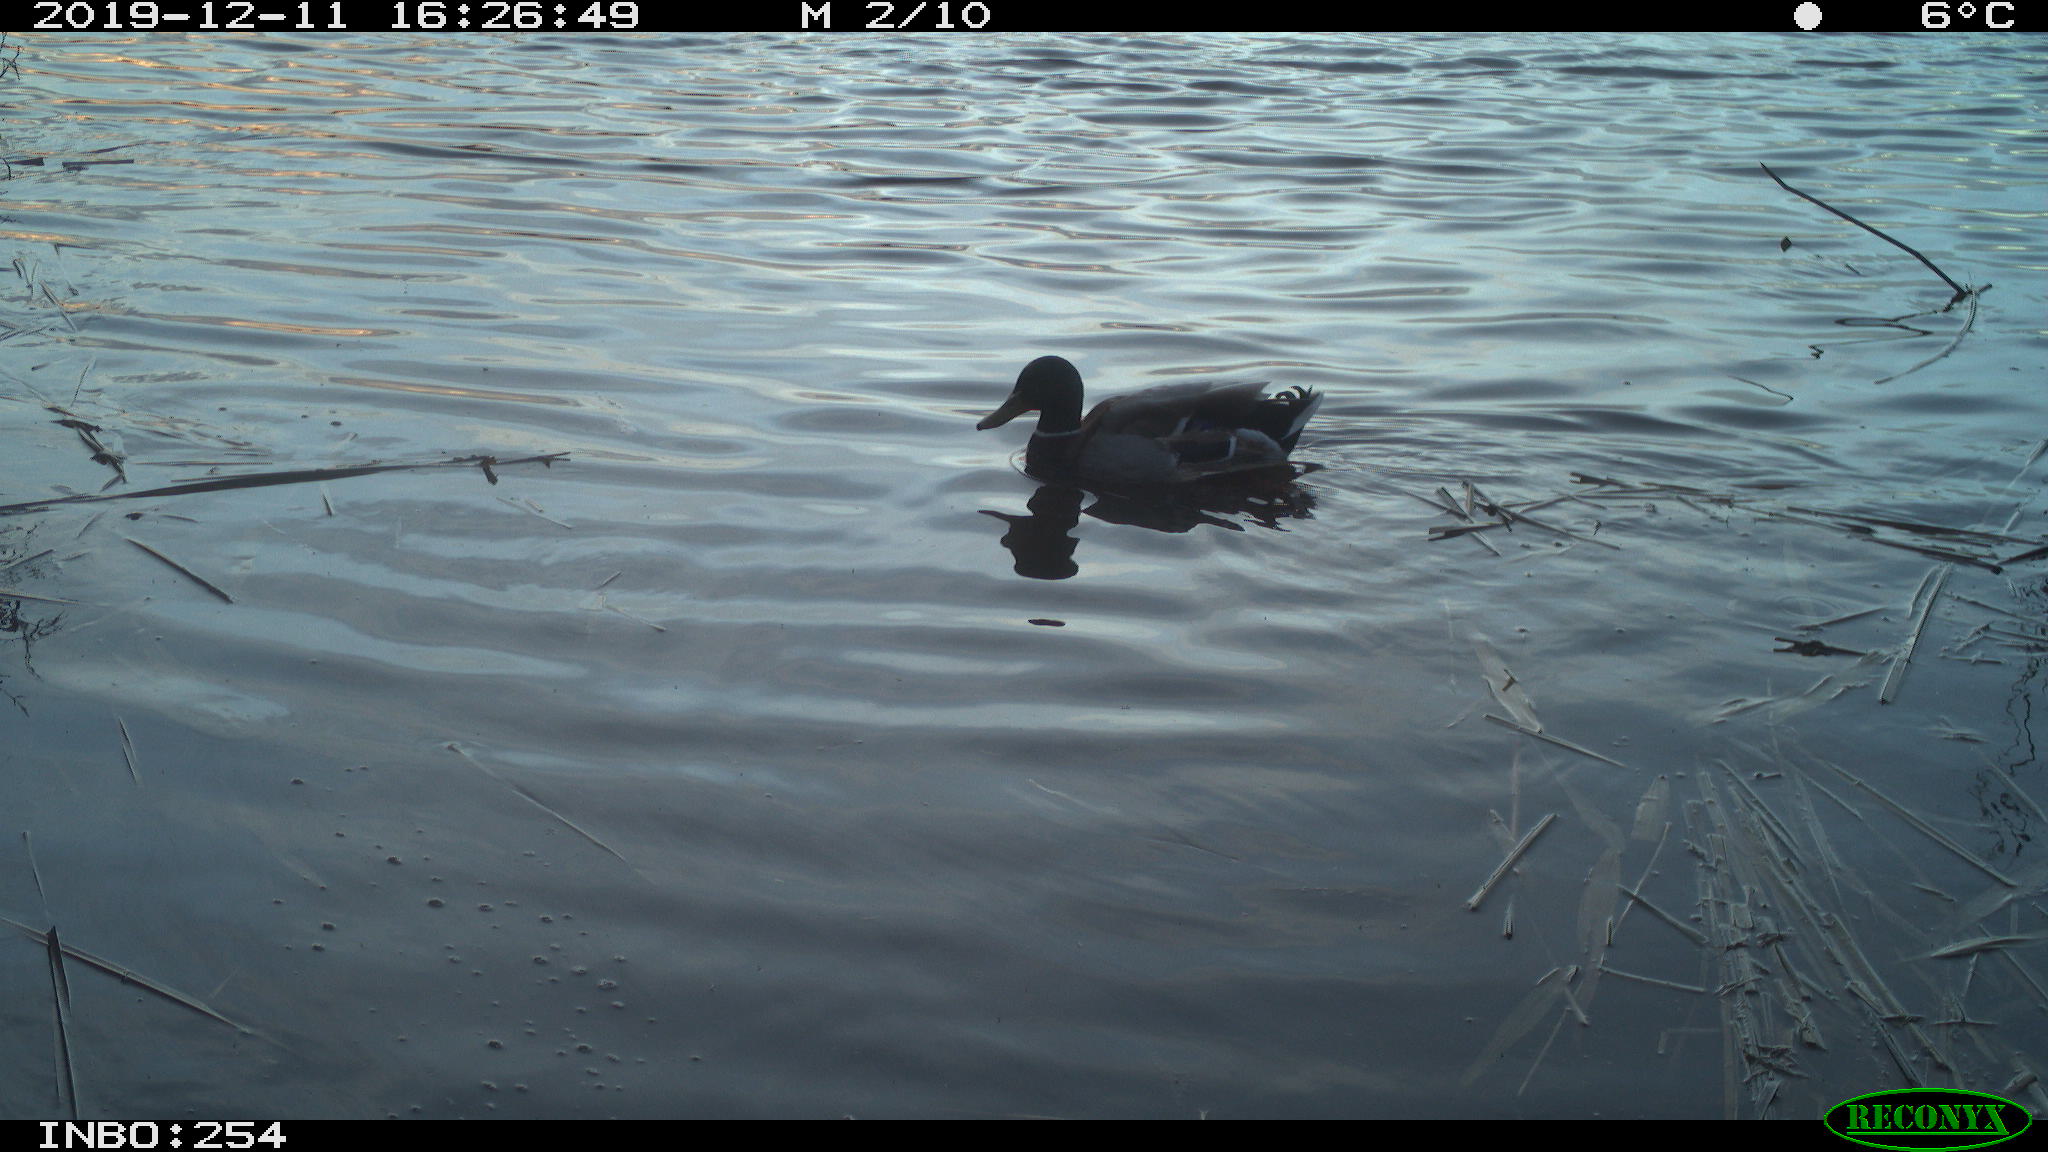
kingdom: Animalia
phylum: Chordata
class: Aves
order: Anseriformes
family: Anatidae
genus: Anas
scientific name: Anas platyrhynchos
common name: Mallard
